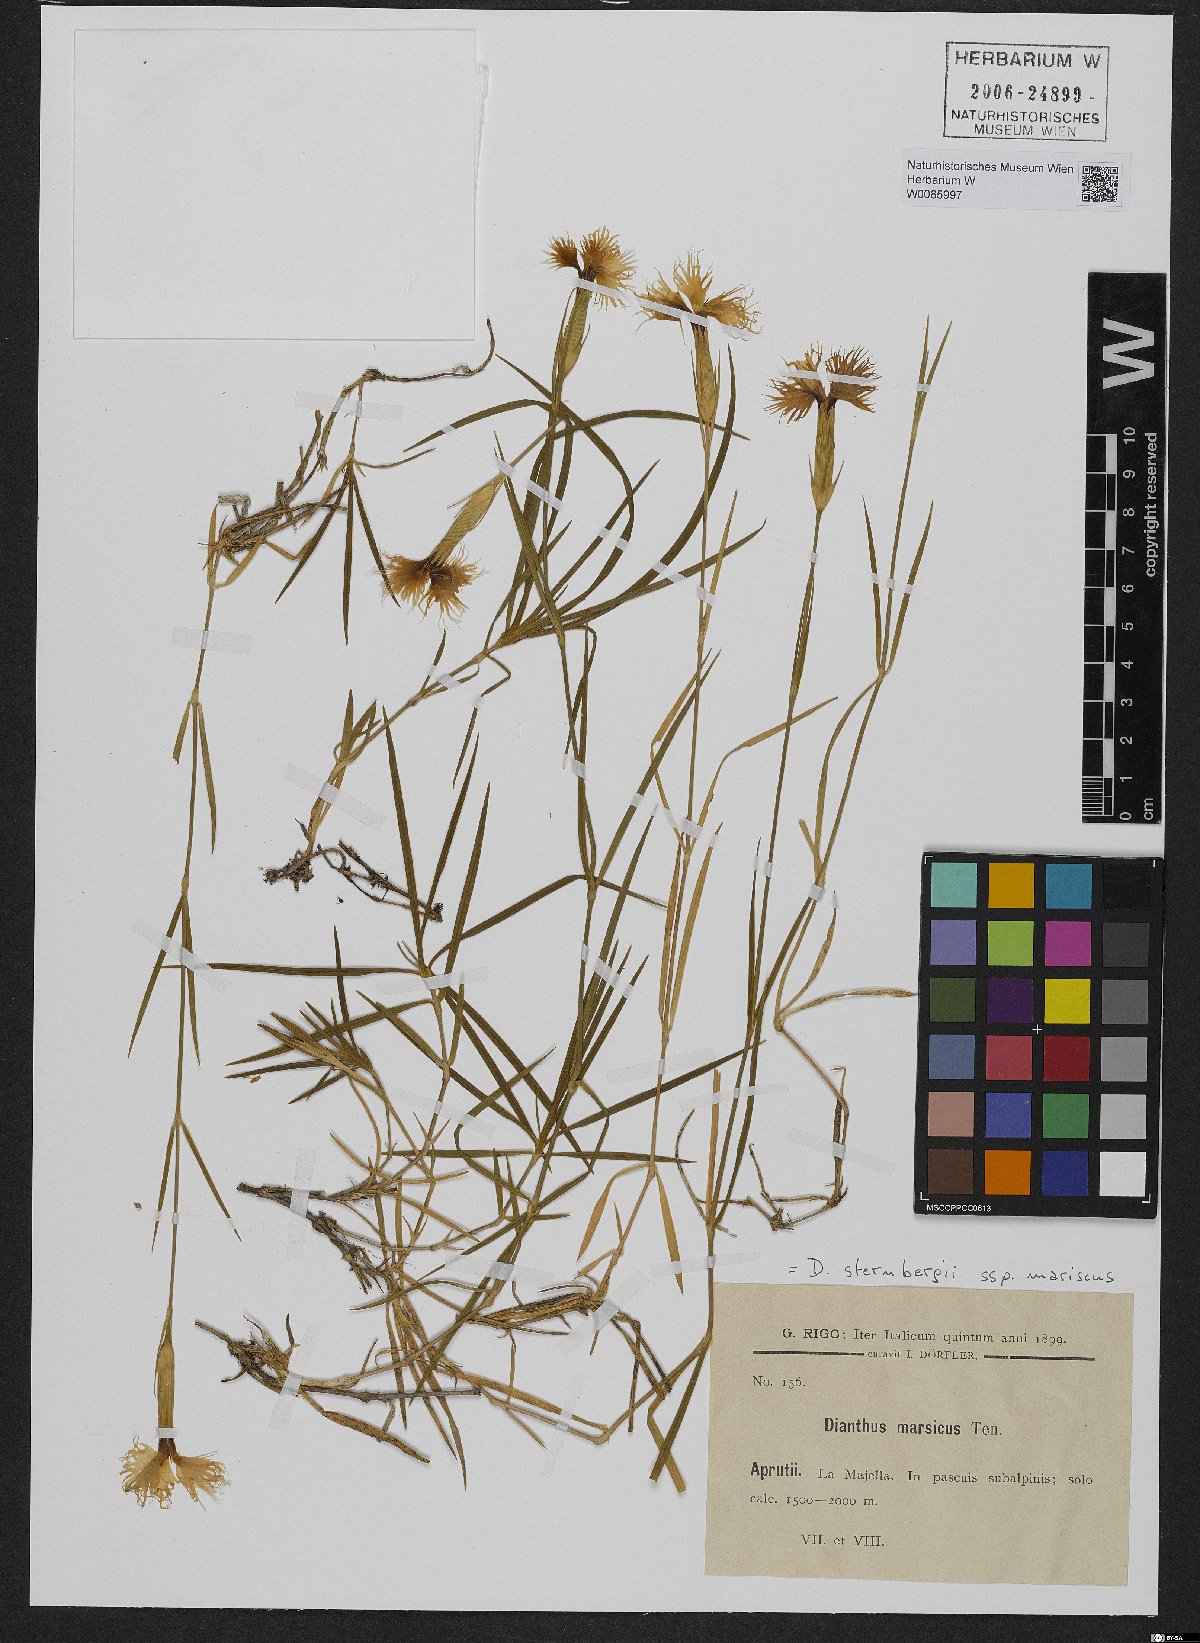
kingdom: Plantae
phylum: Tracheophyta
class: Magnoliopsida
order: Caryophyllales
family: Caryophyllaceae
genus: Dianthus
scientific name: Dianthus sternbergii
